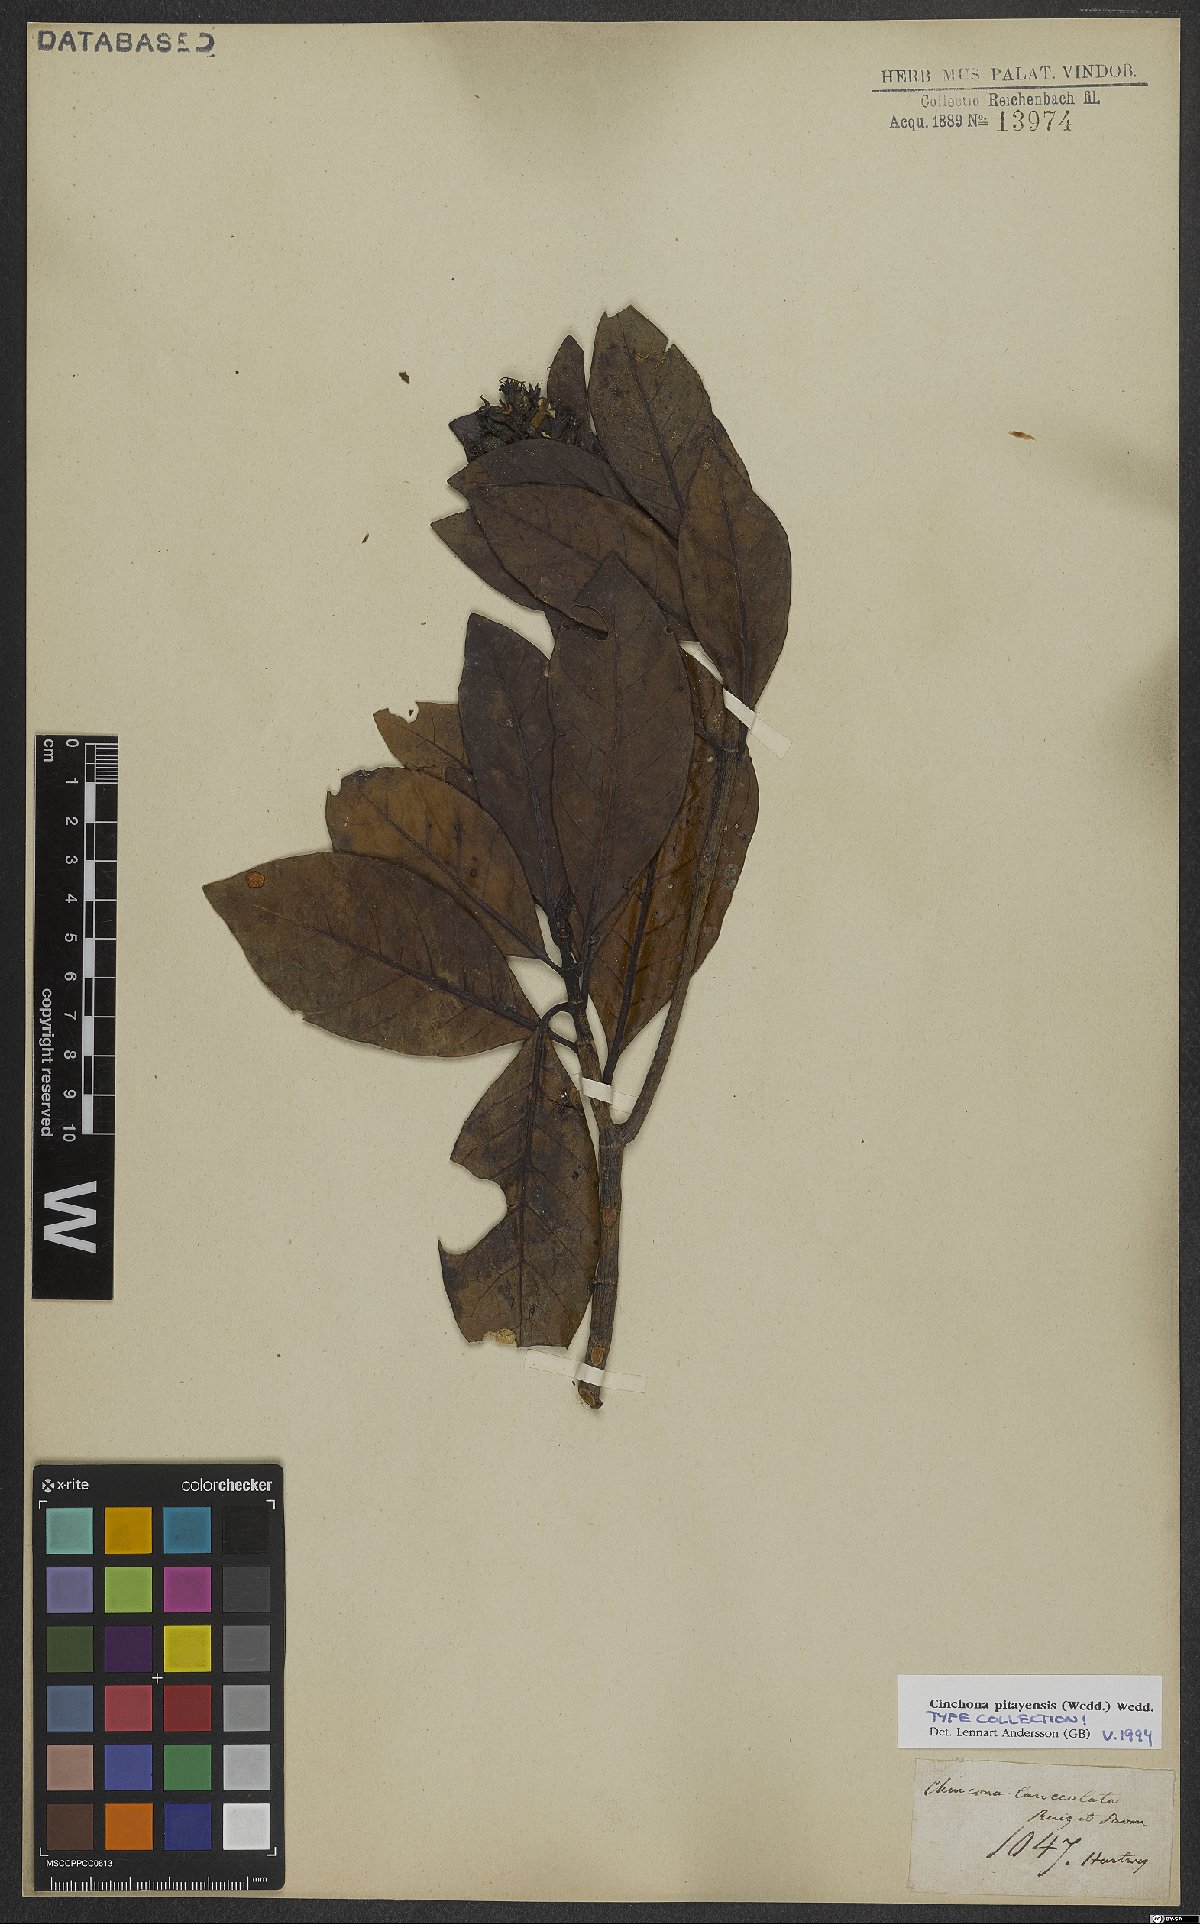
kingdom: Plantae
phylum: Tracheophyta
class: Magnoliopsida
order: Gentianales
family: Rubiaceae
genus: Cinchona
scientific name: Cinchona pitayensis
